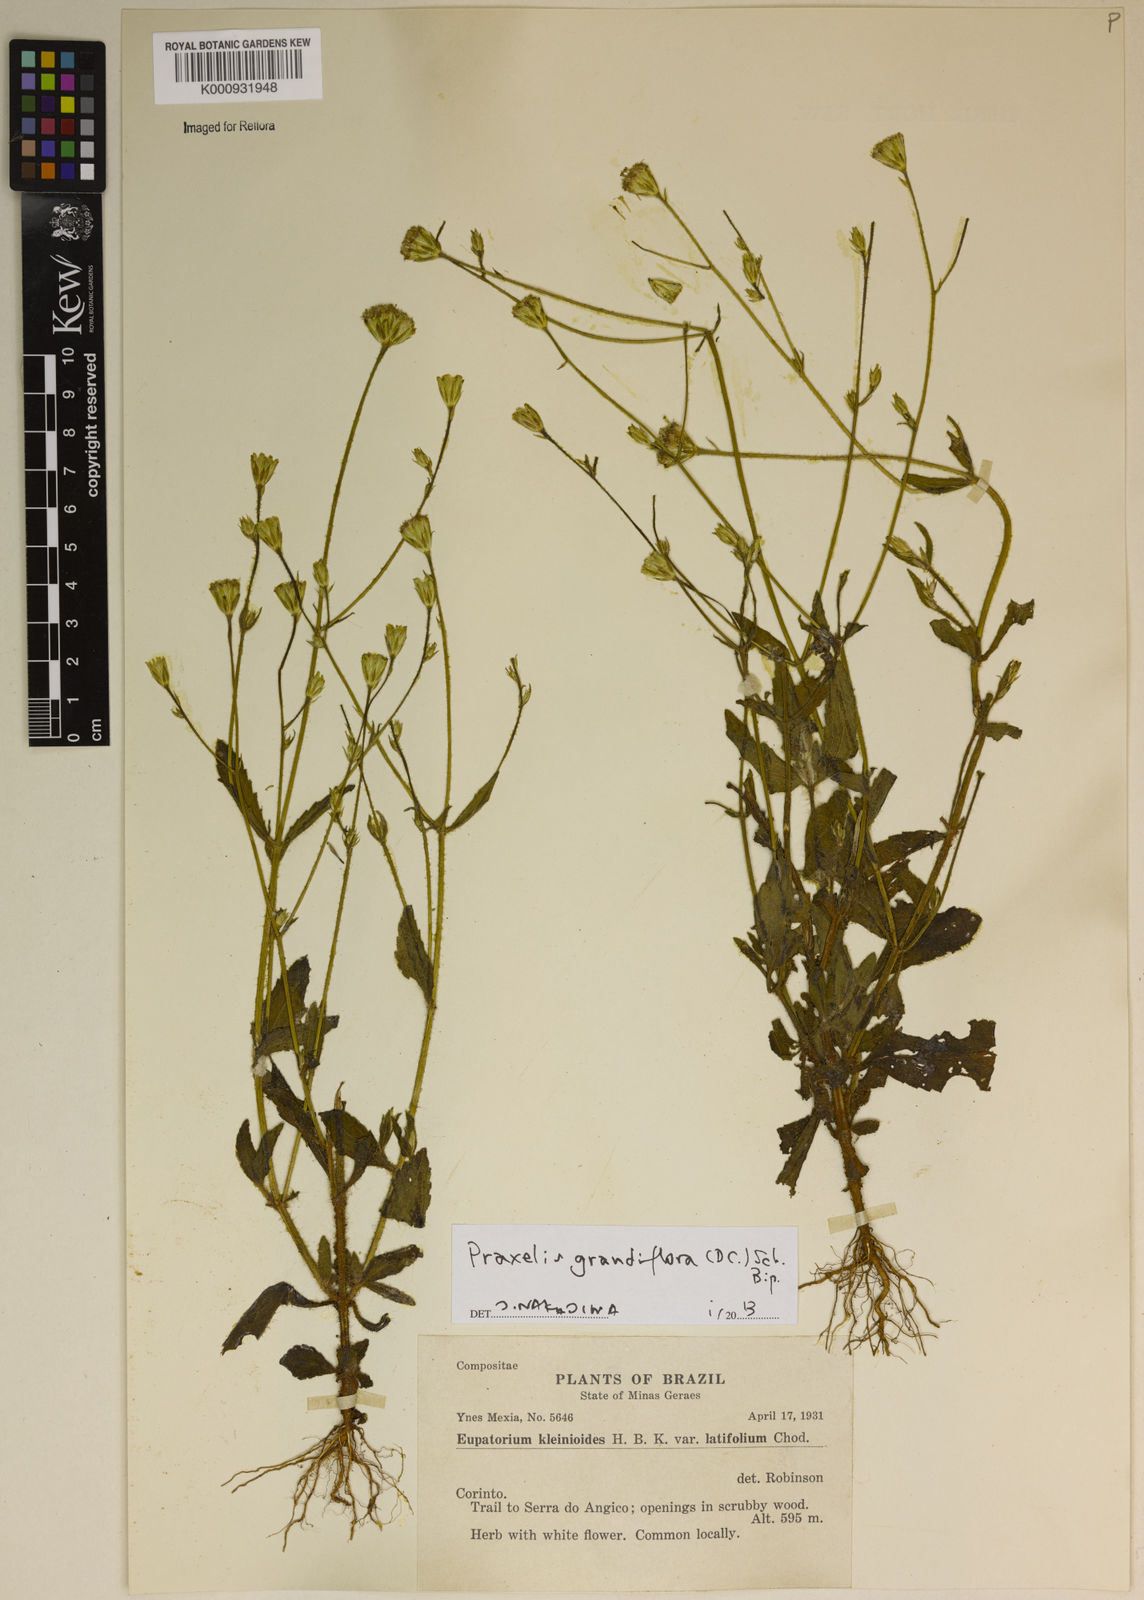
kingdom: Plantae
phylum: Tracheophyta
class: Magnoliopsida
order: Asterales
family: Asteraceae
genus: Praxelis
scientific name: Praxelis grandiflora
